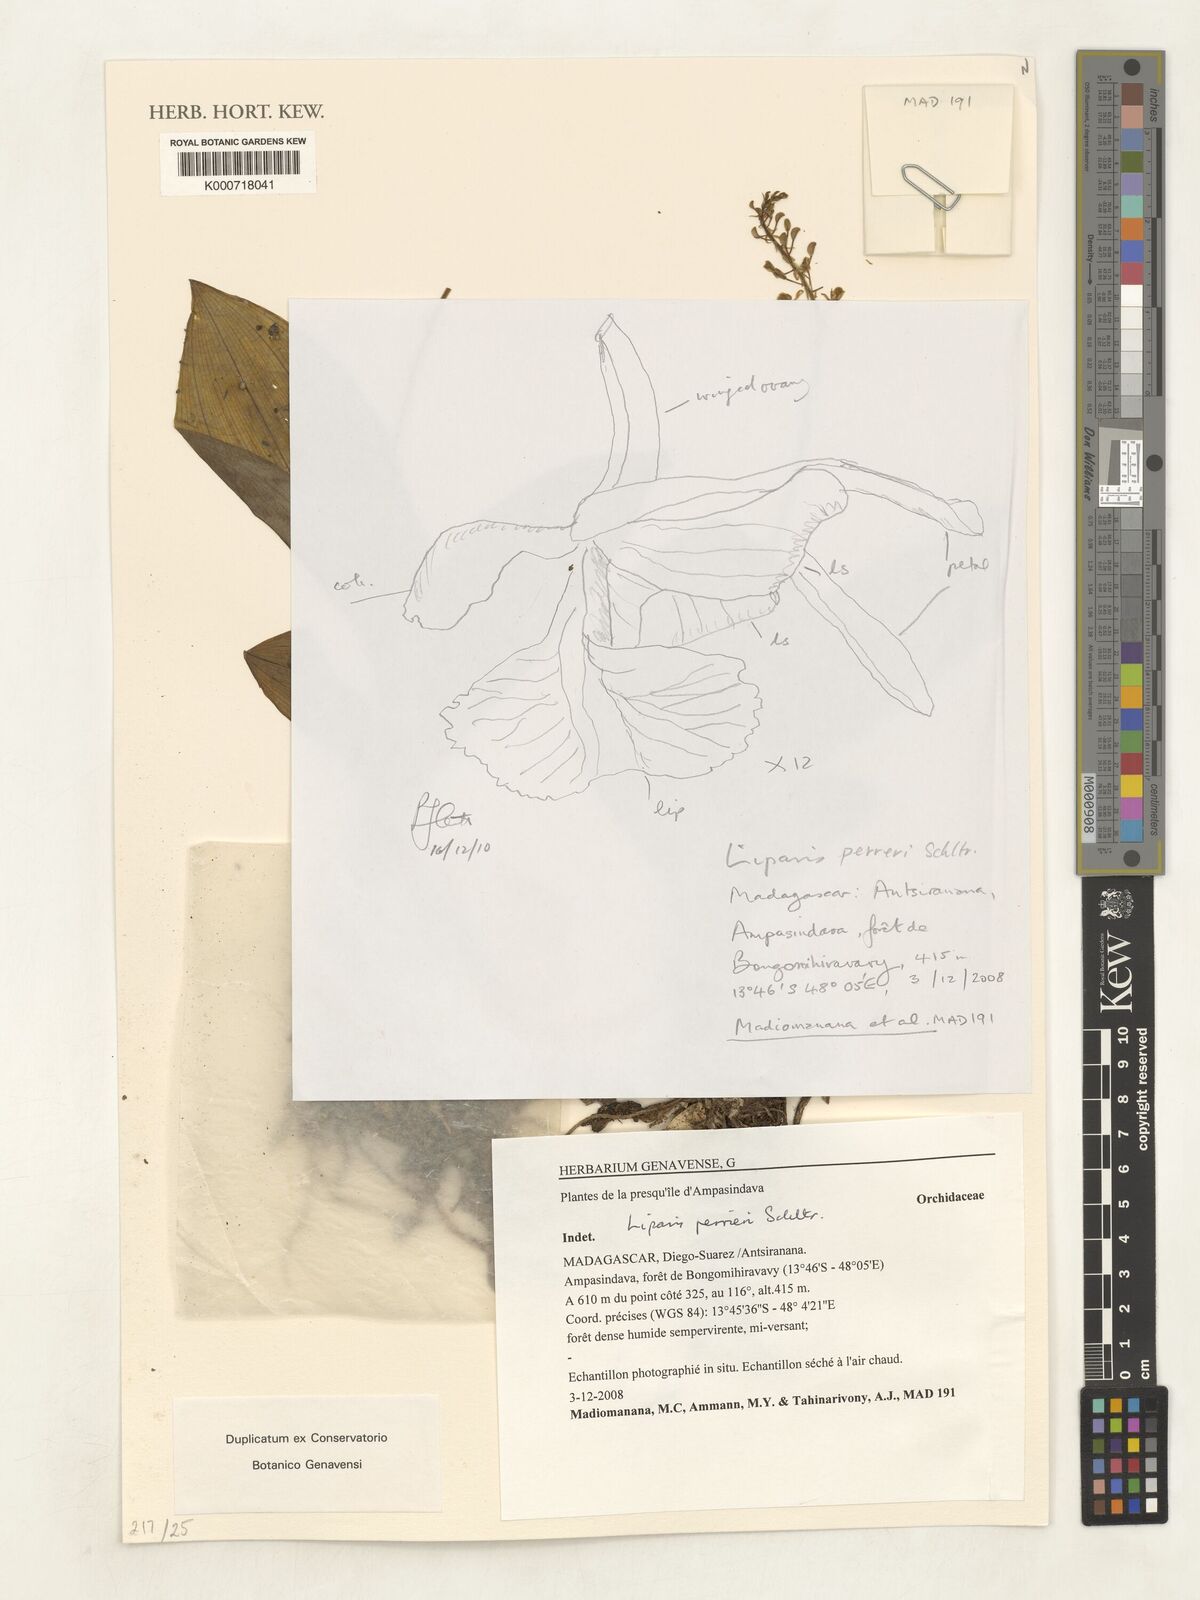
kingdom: Plantae
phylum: Tracheophyta
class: Liliopsida
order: Asparagales
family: Orchidaceae
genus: Liparis
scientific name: Liparis perrieri
